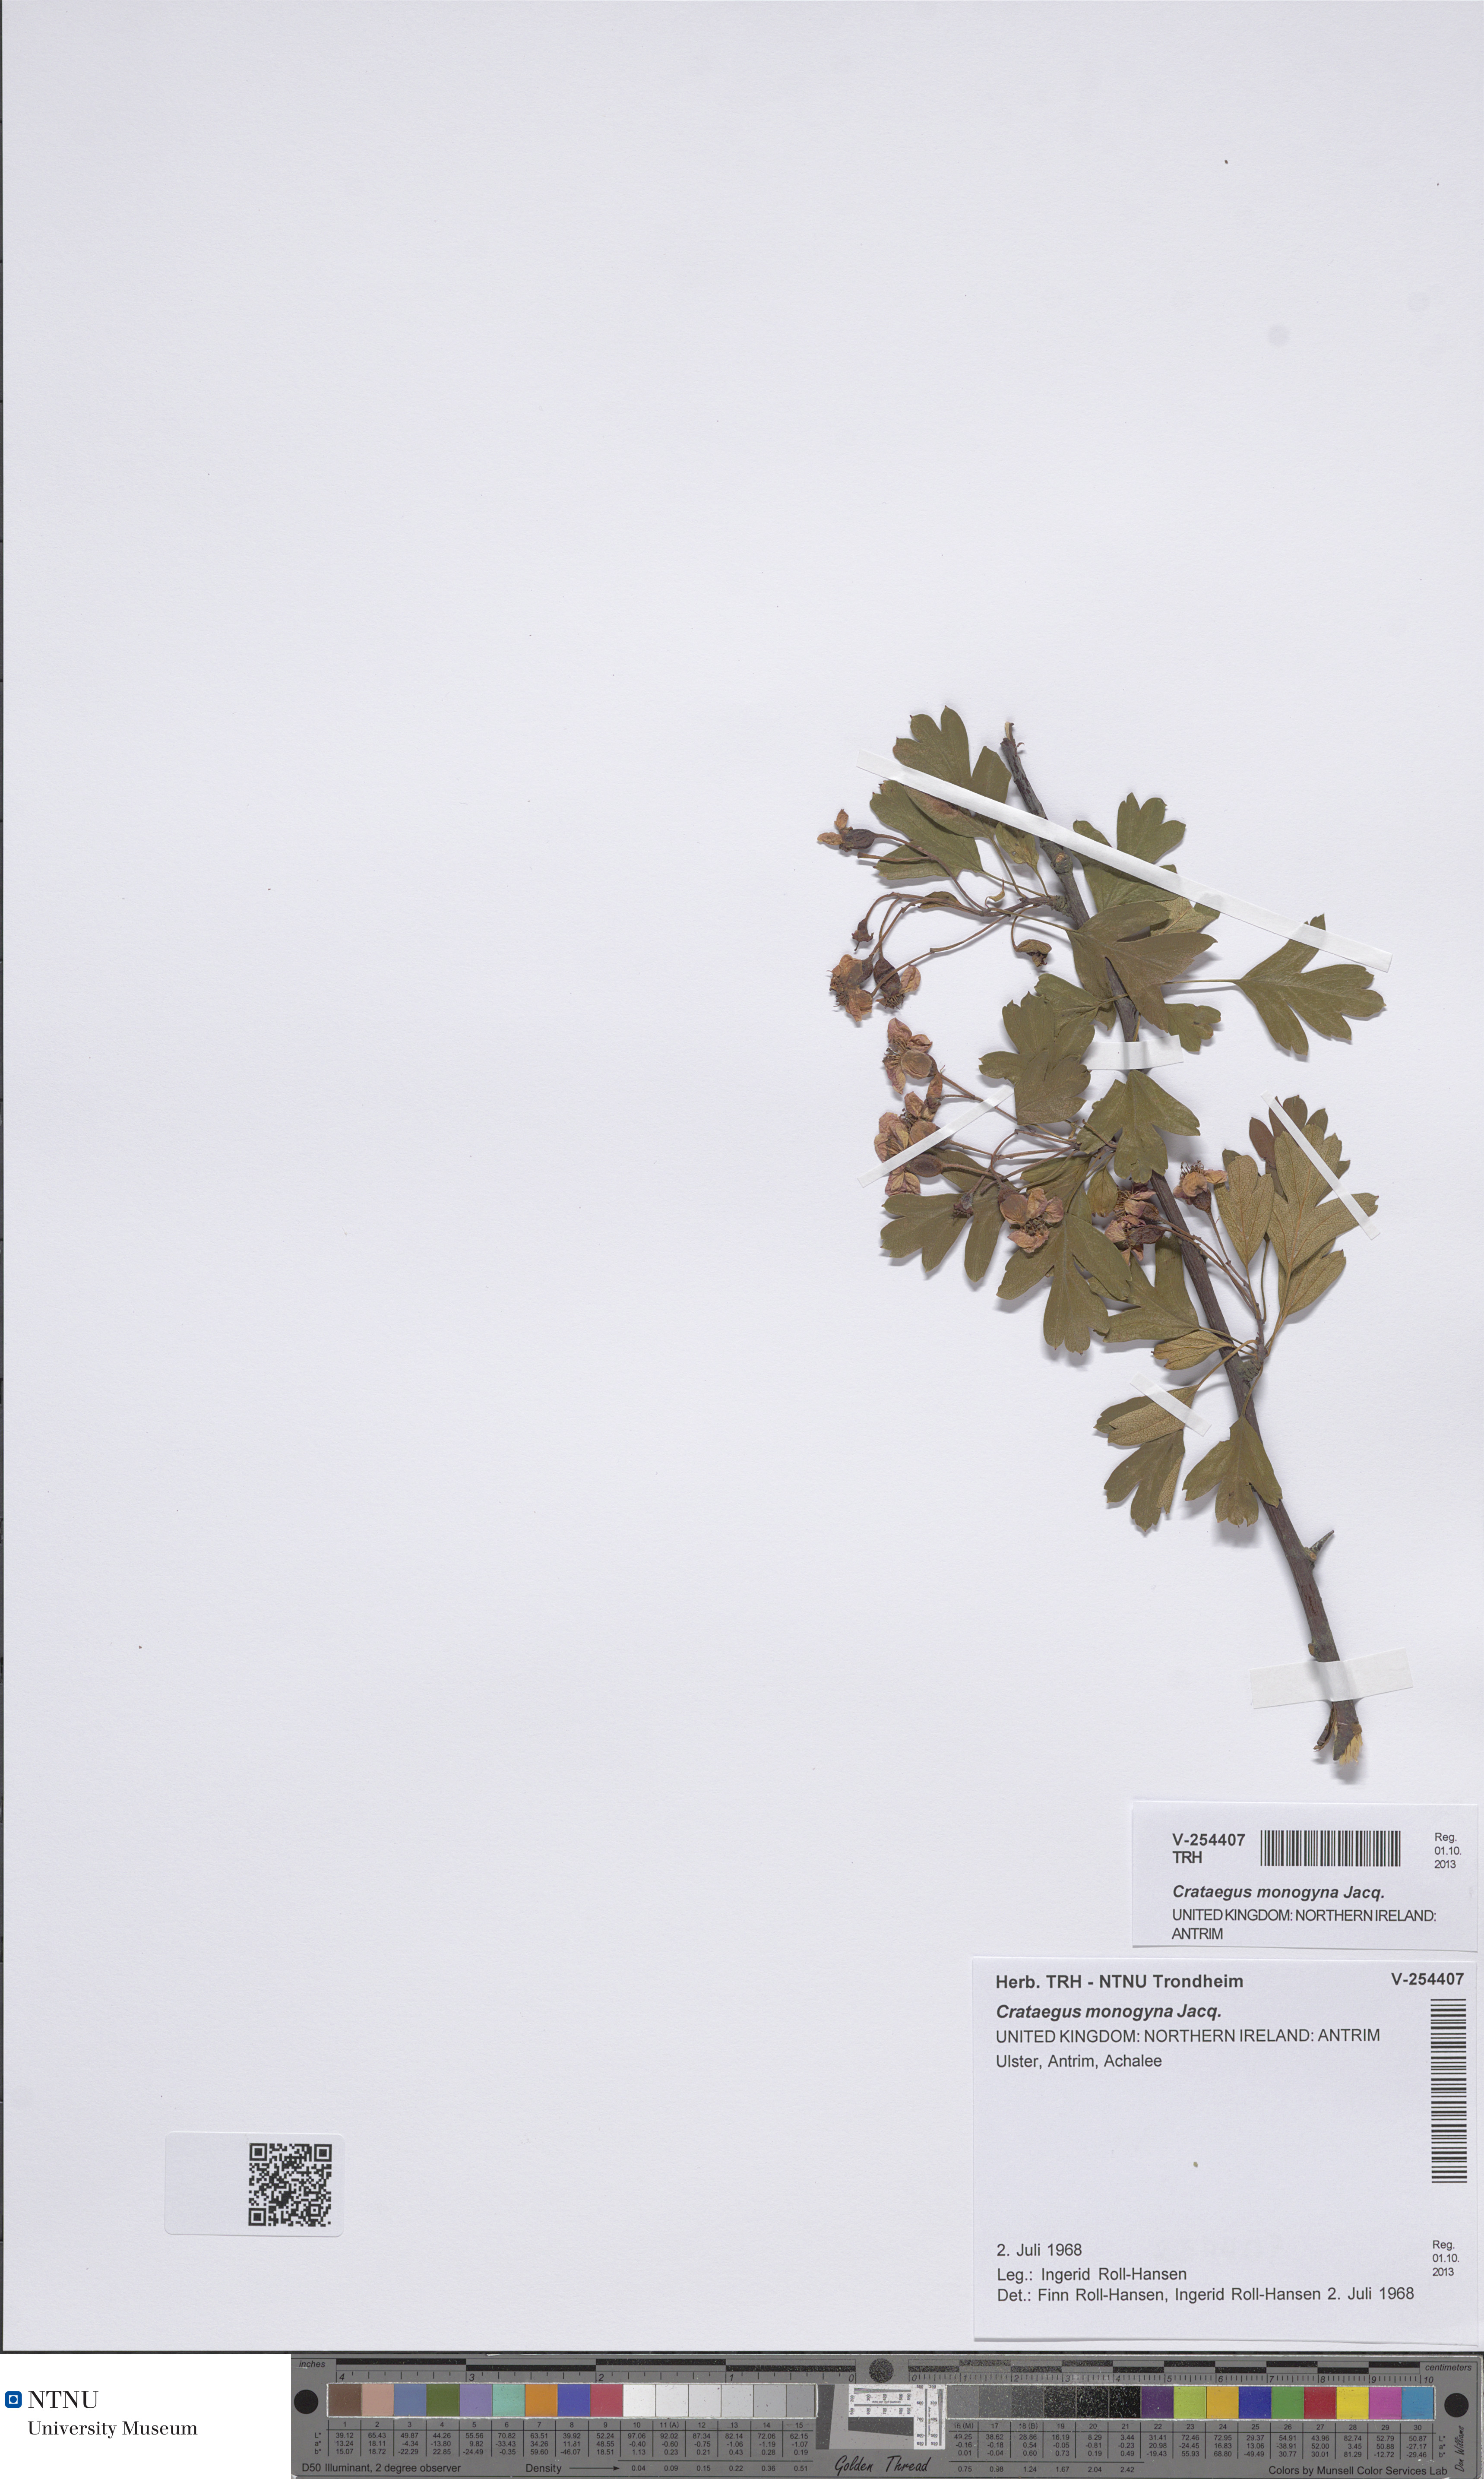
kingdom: Plantae
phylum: Tracheophyta
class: Magnoliopsida
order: Rosales
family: Rosaceae
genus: Crataegus
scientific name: Crataegus monogyna
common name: Hawthorn
